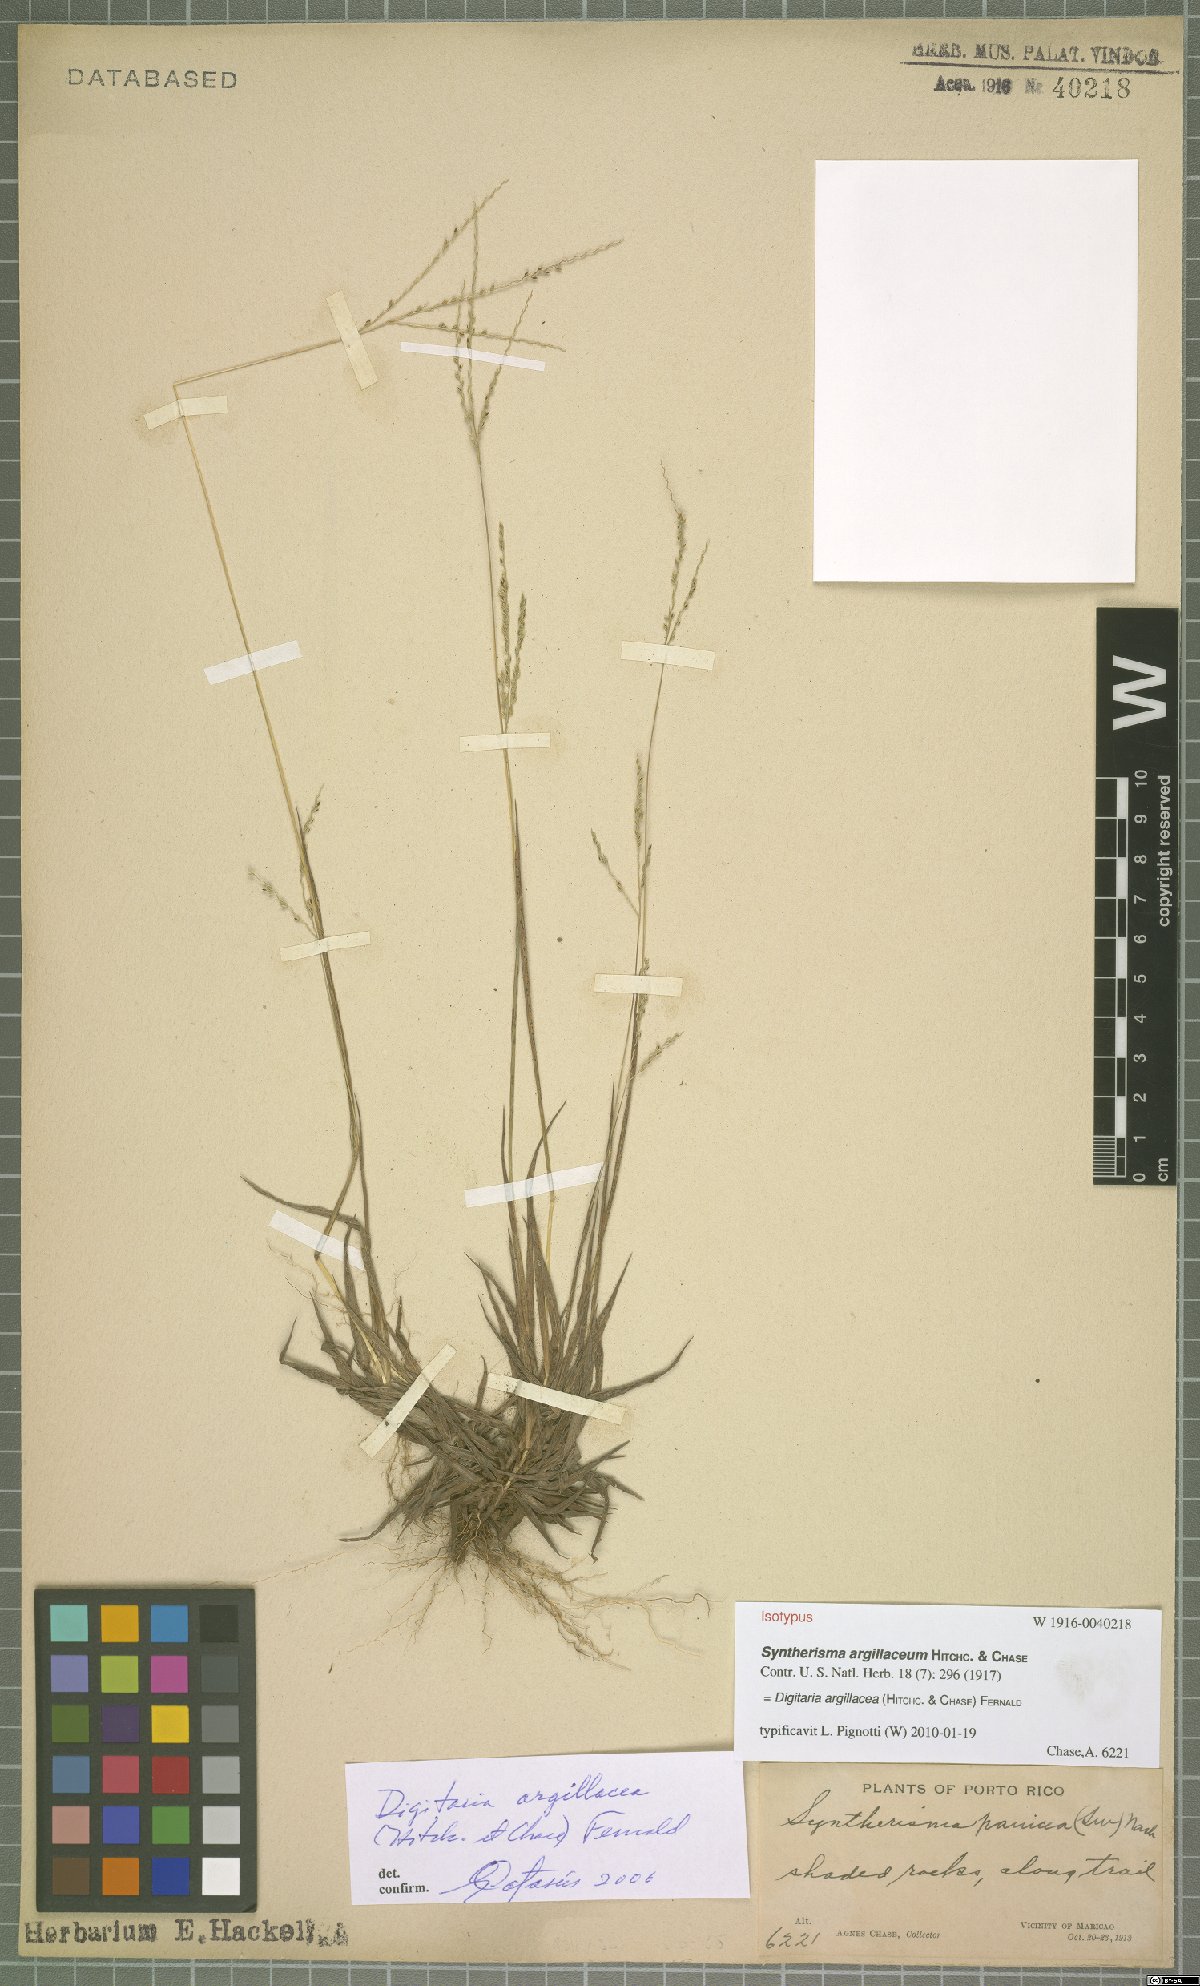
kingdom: Plantae
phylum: Tracheophyta
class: Liliopsida
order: Poales
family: Poaceae
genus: Digitaria
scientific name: Digitaria argillacea
